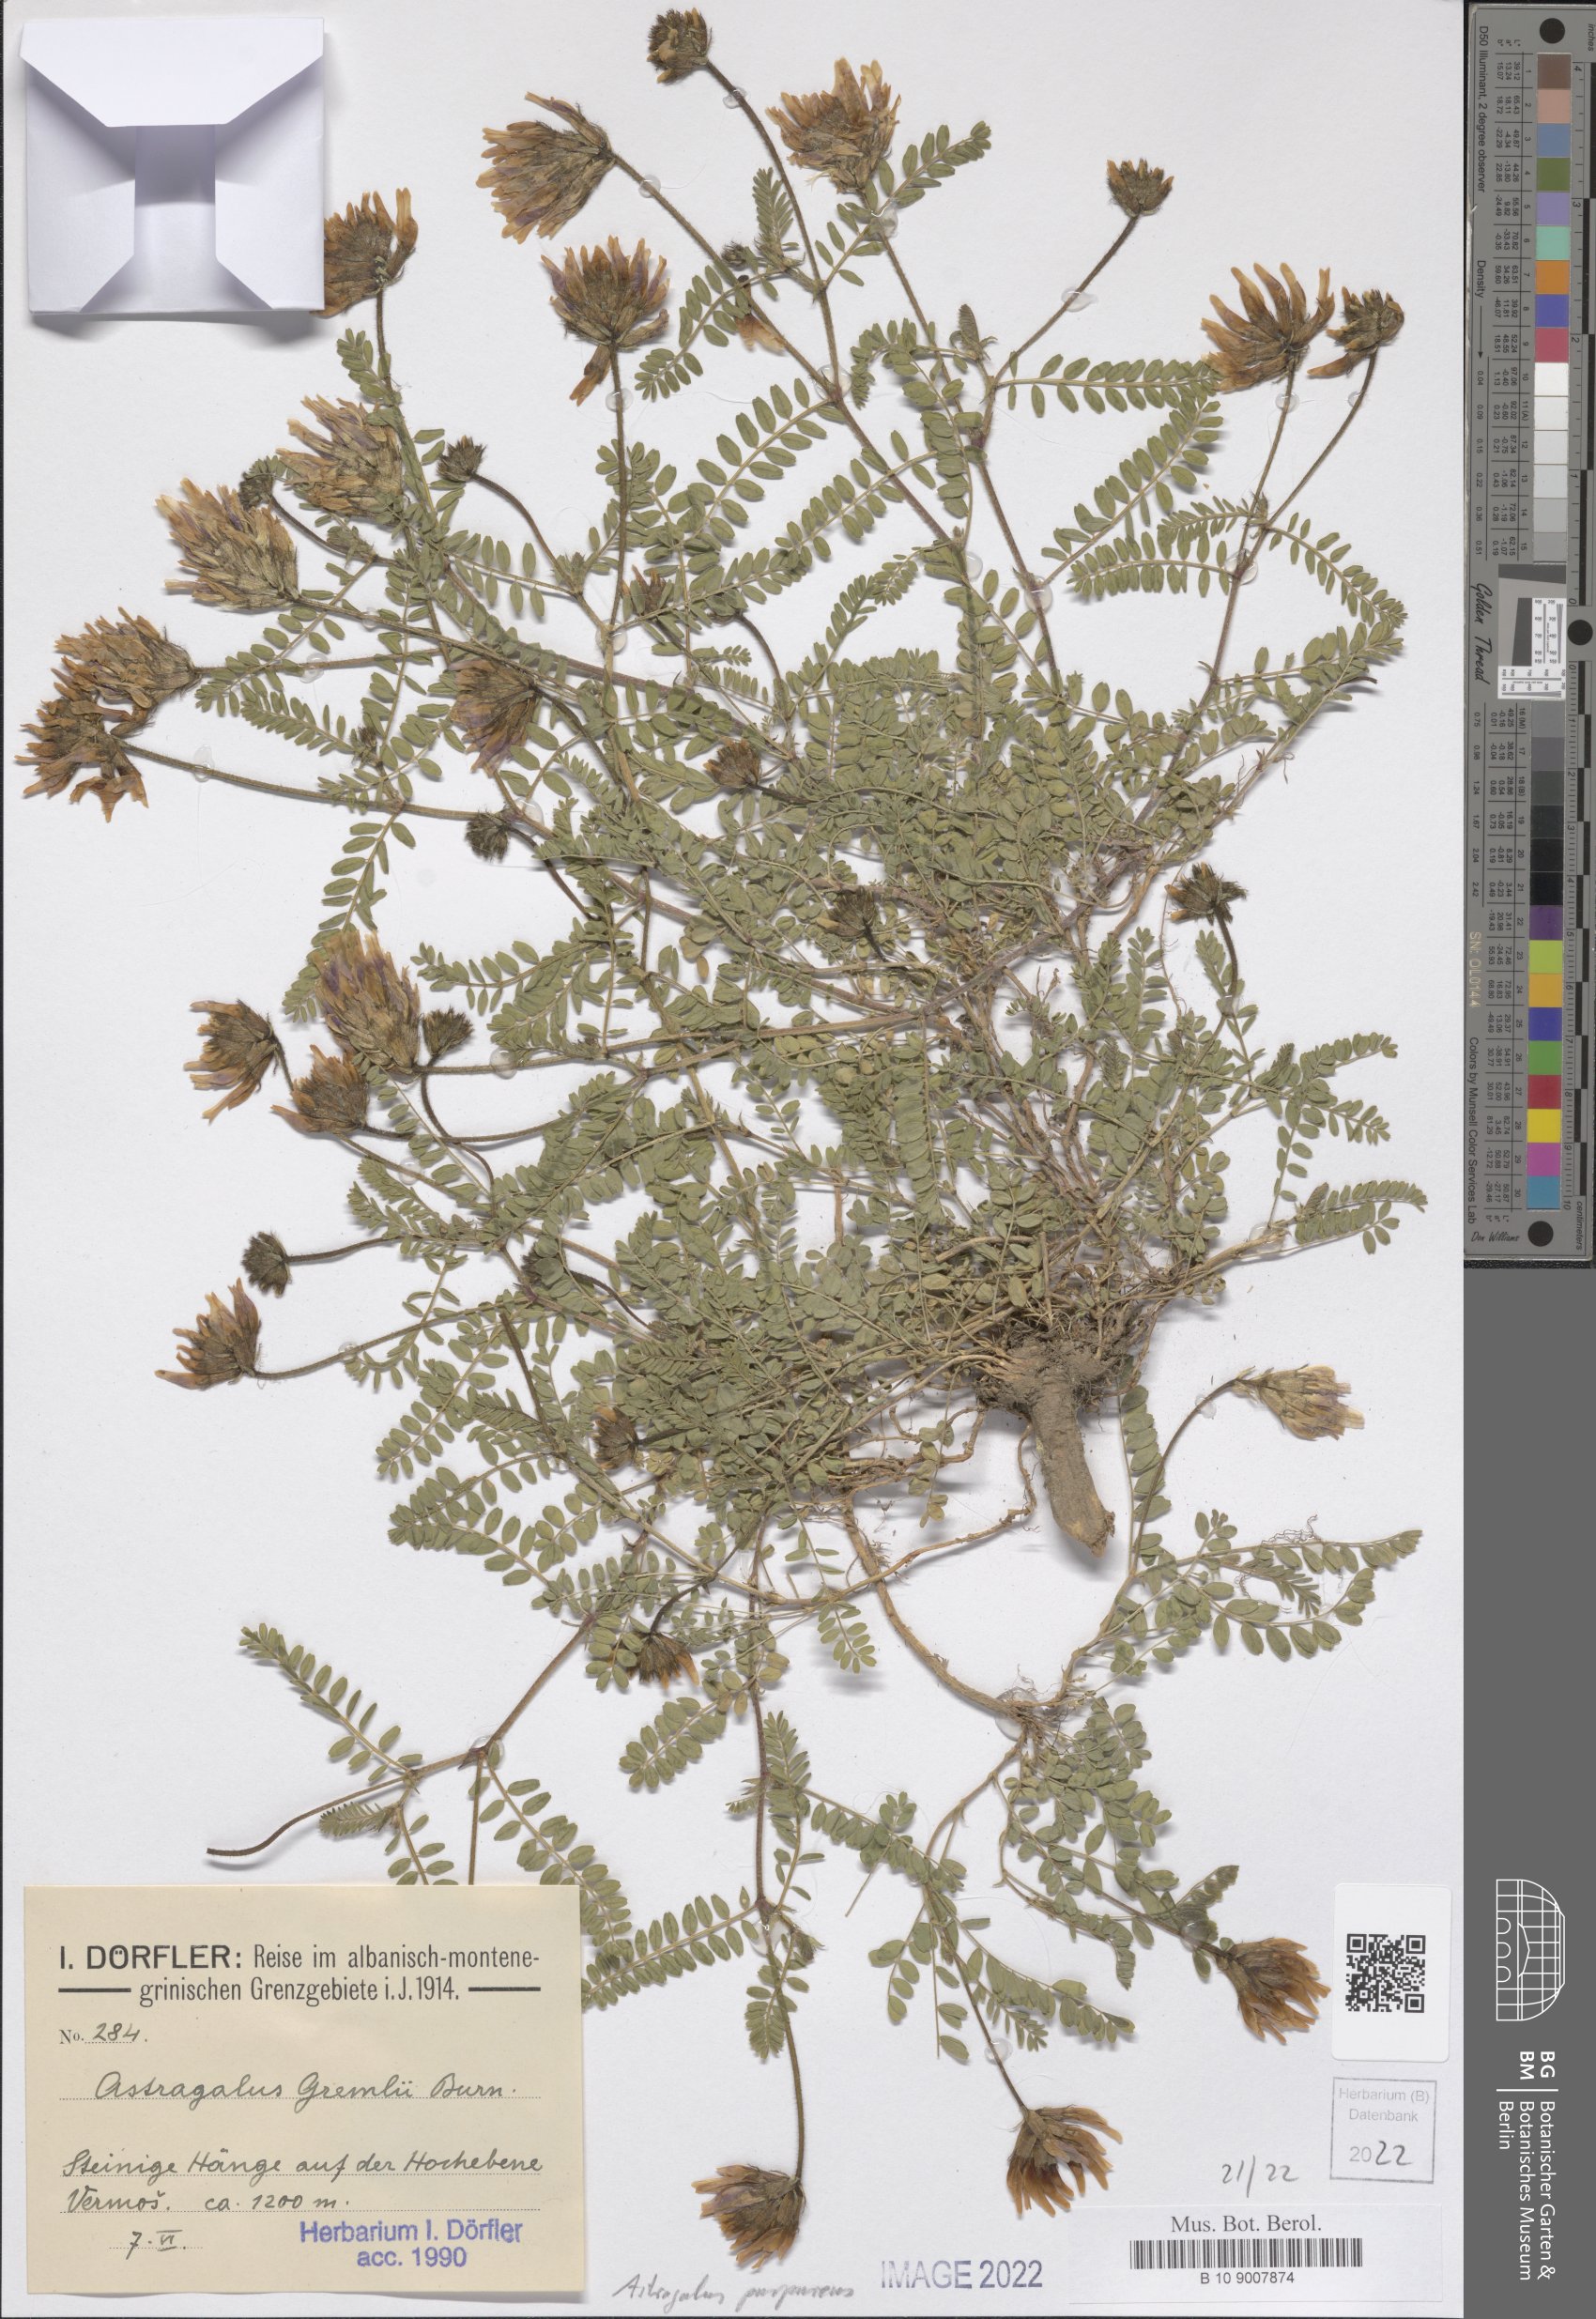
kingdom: Plantae
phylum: Tracheophyta
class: Magnoliopsida
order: Fabales
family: Fabaceae
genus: Astragalus
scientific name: Astragalus hypoglottis
